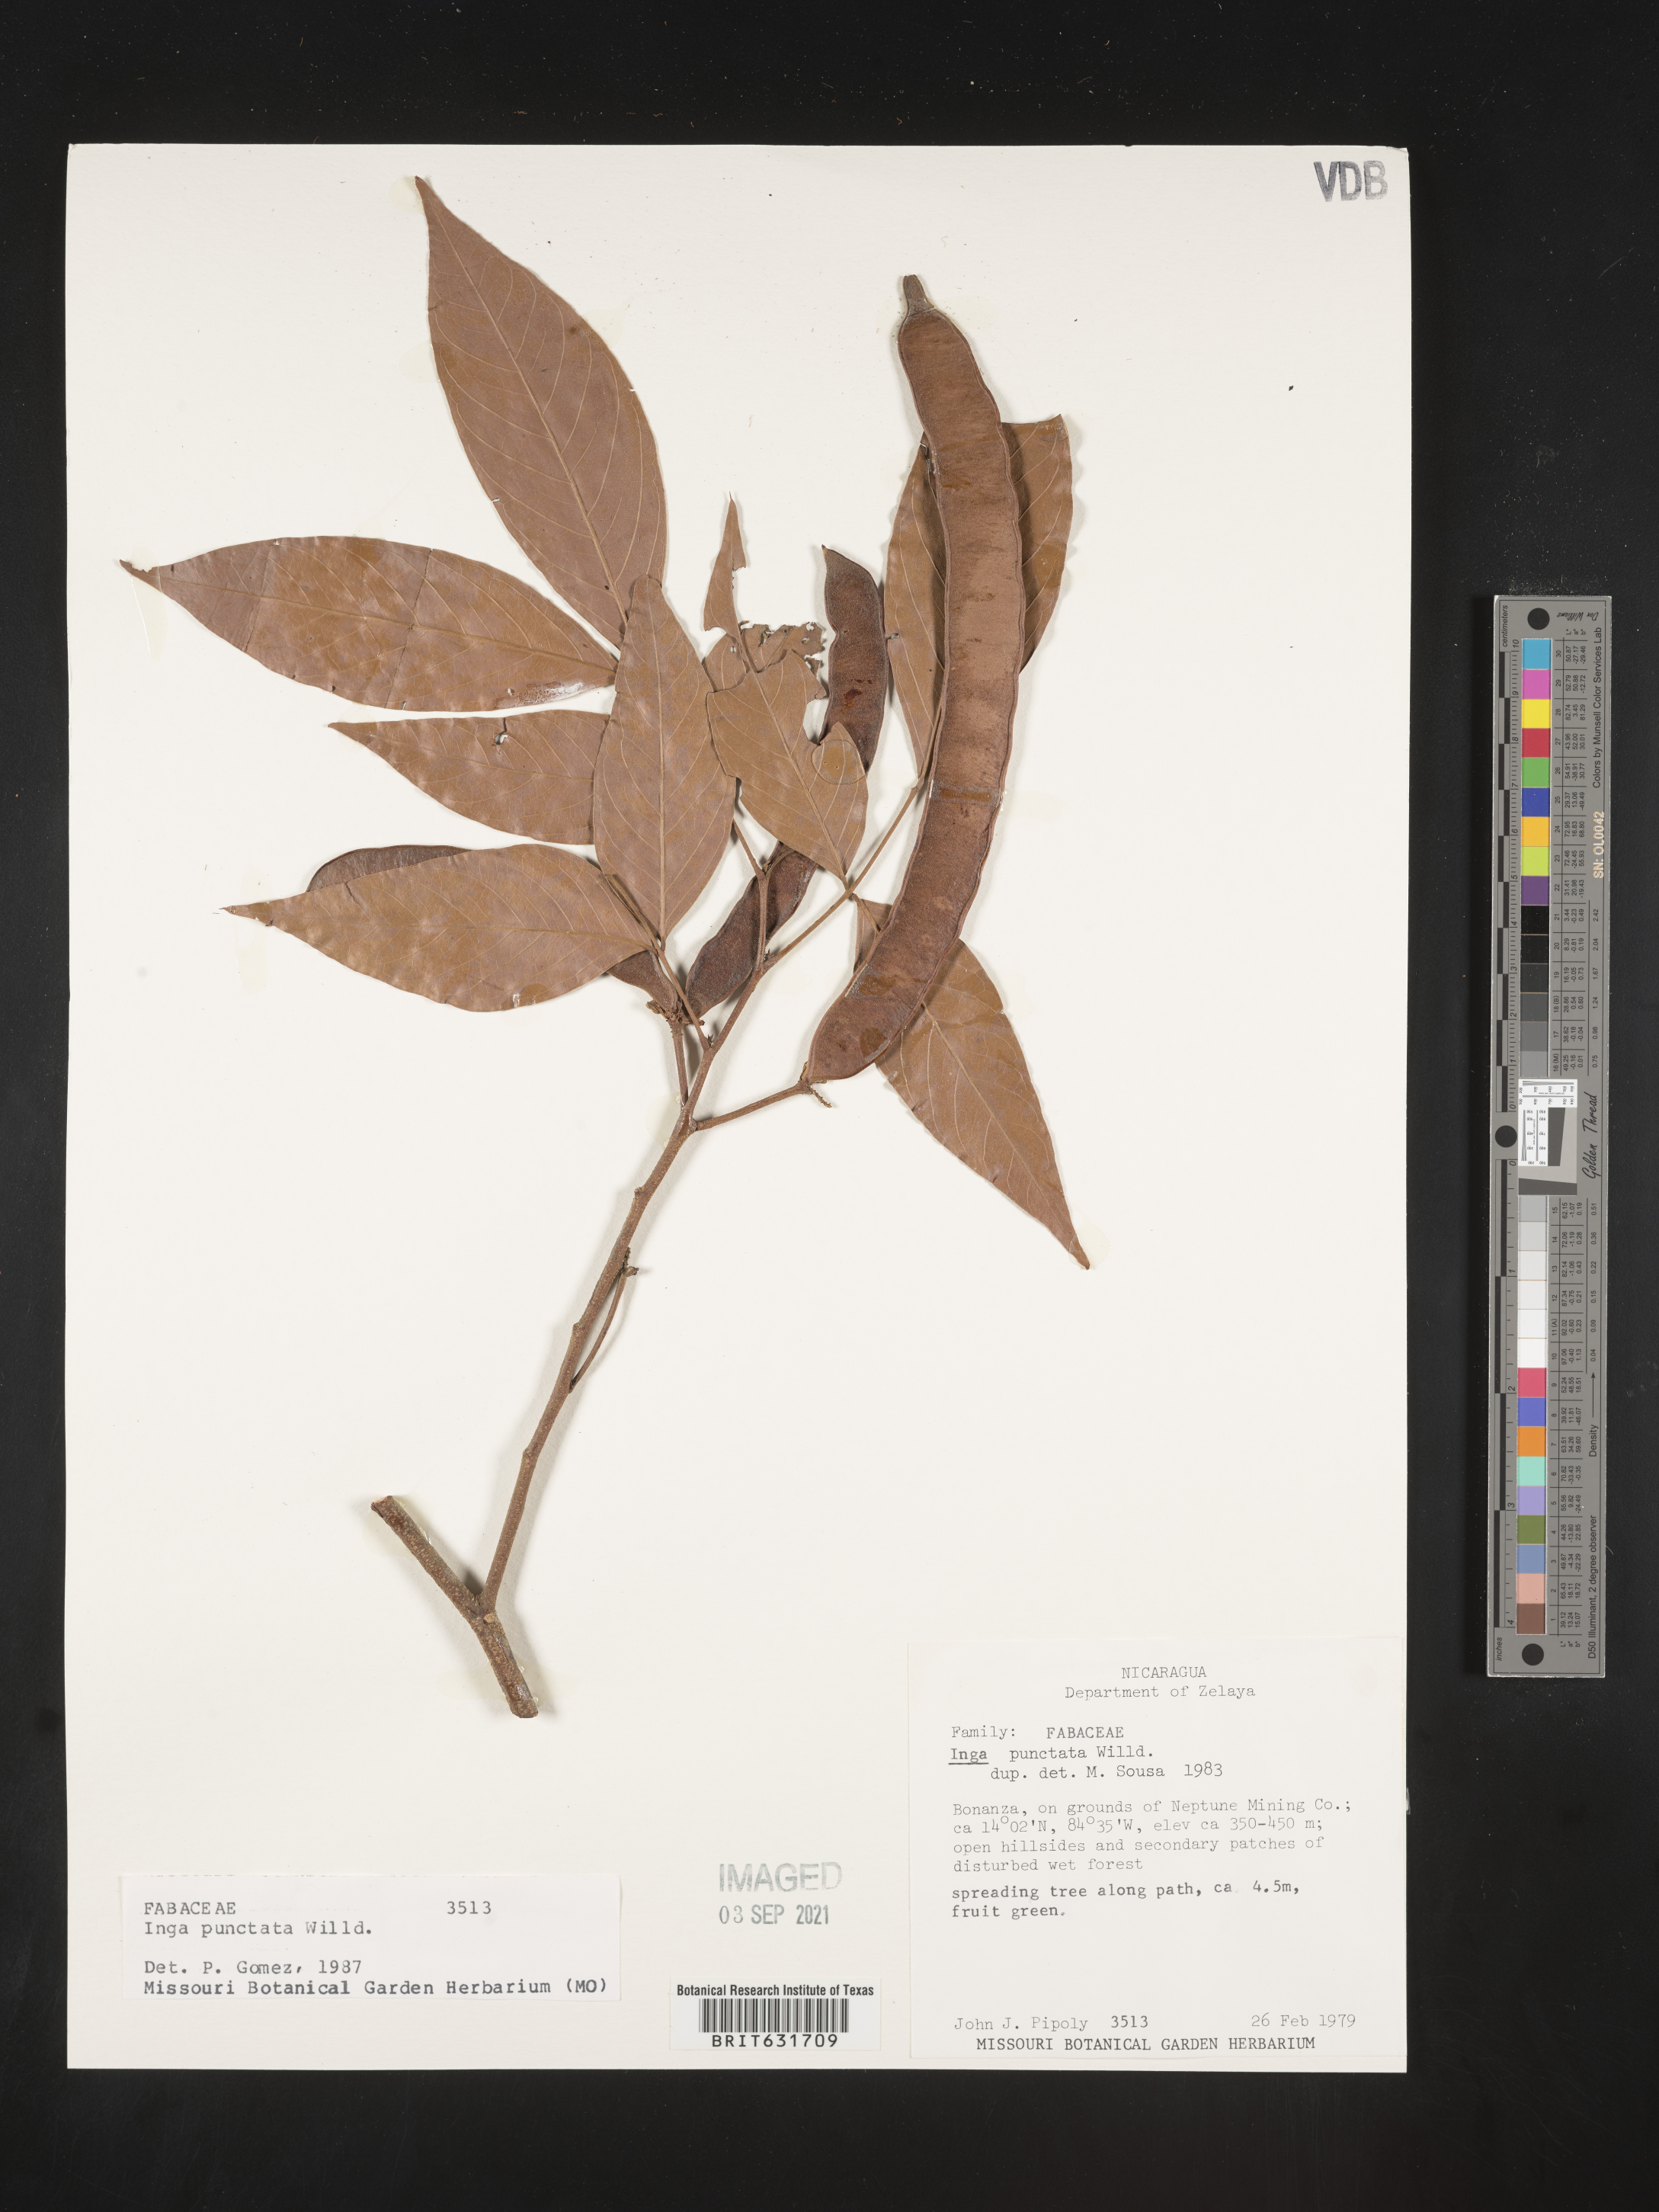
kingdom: Plantae
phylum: Tracheophyta
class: Magnoliopsida
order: Fabales
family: Fabaceae
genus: Inga
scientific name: Inga
